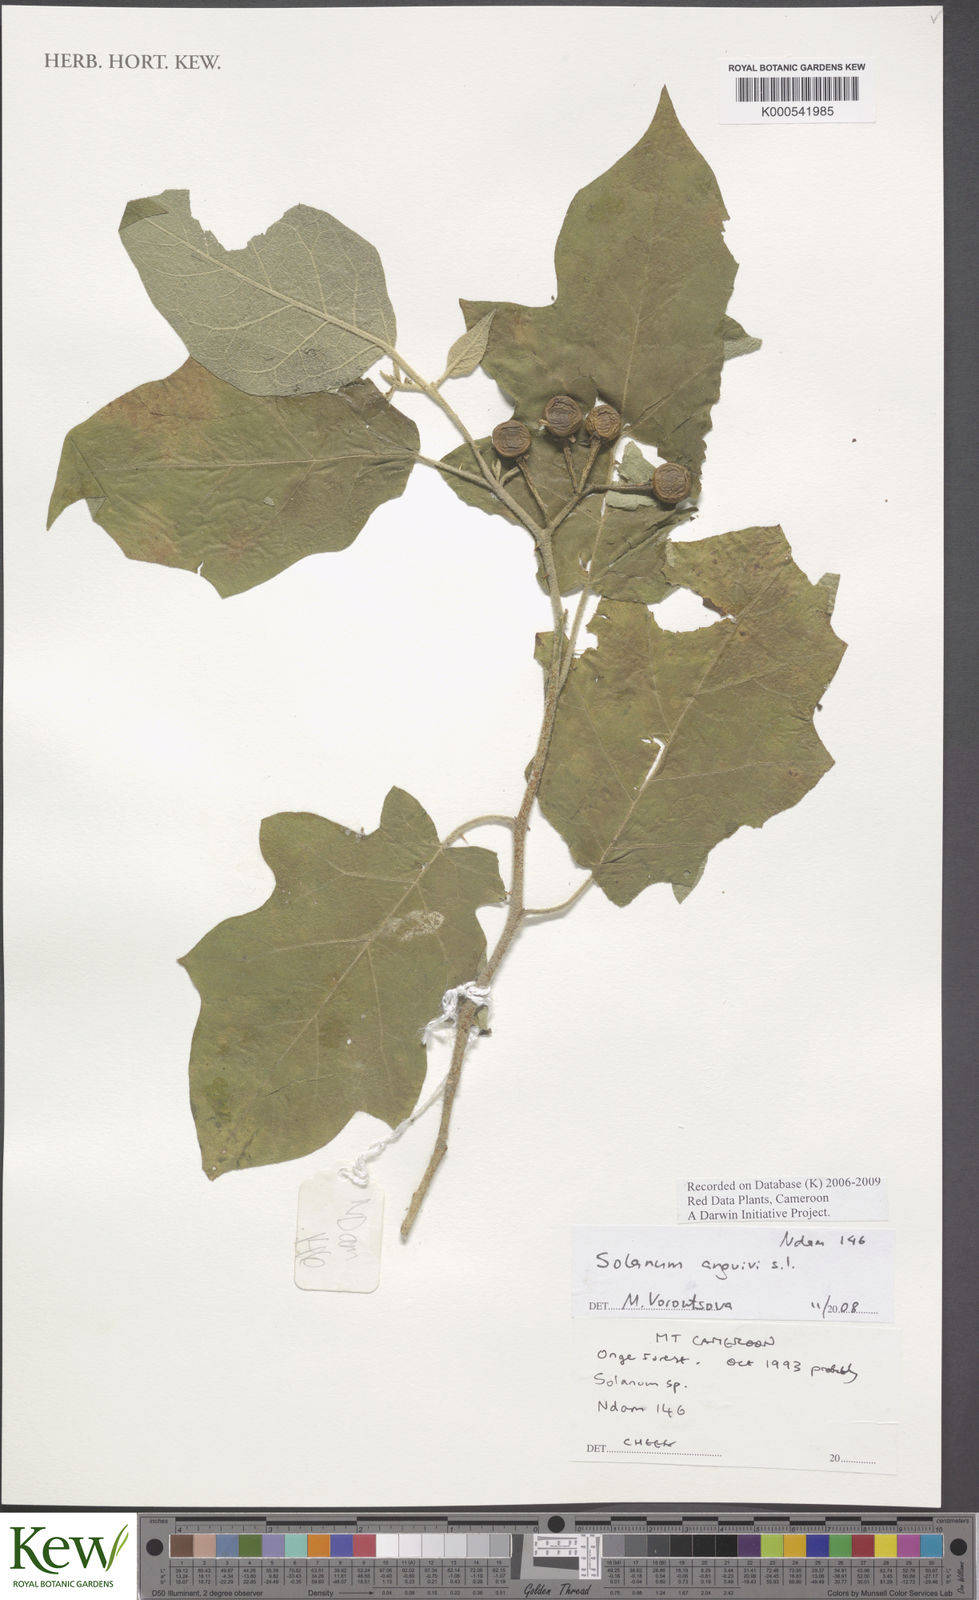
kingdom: Plantae
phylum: Tracheophyta
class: Magnoliopsida
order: Solanales
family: Solanaceae
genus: Solanum
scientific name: Solanum anguivi
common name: Forest bitterberry
